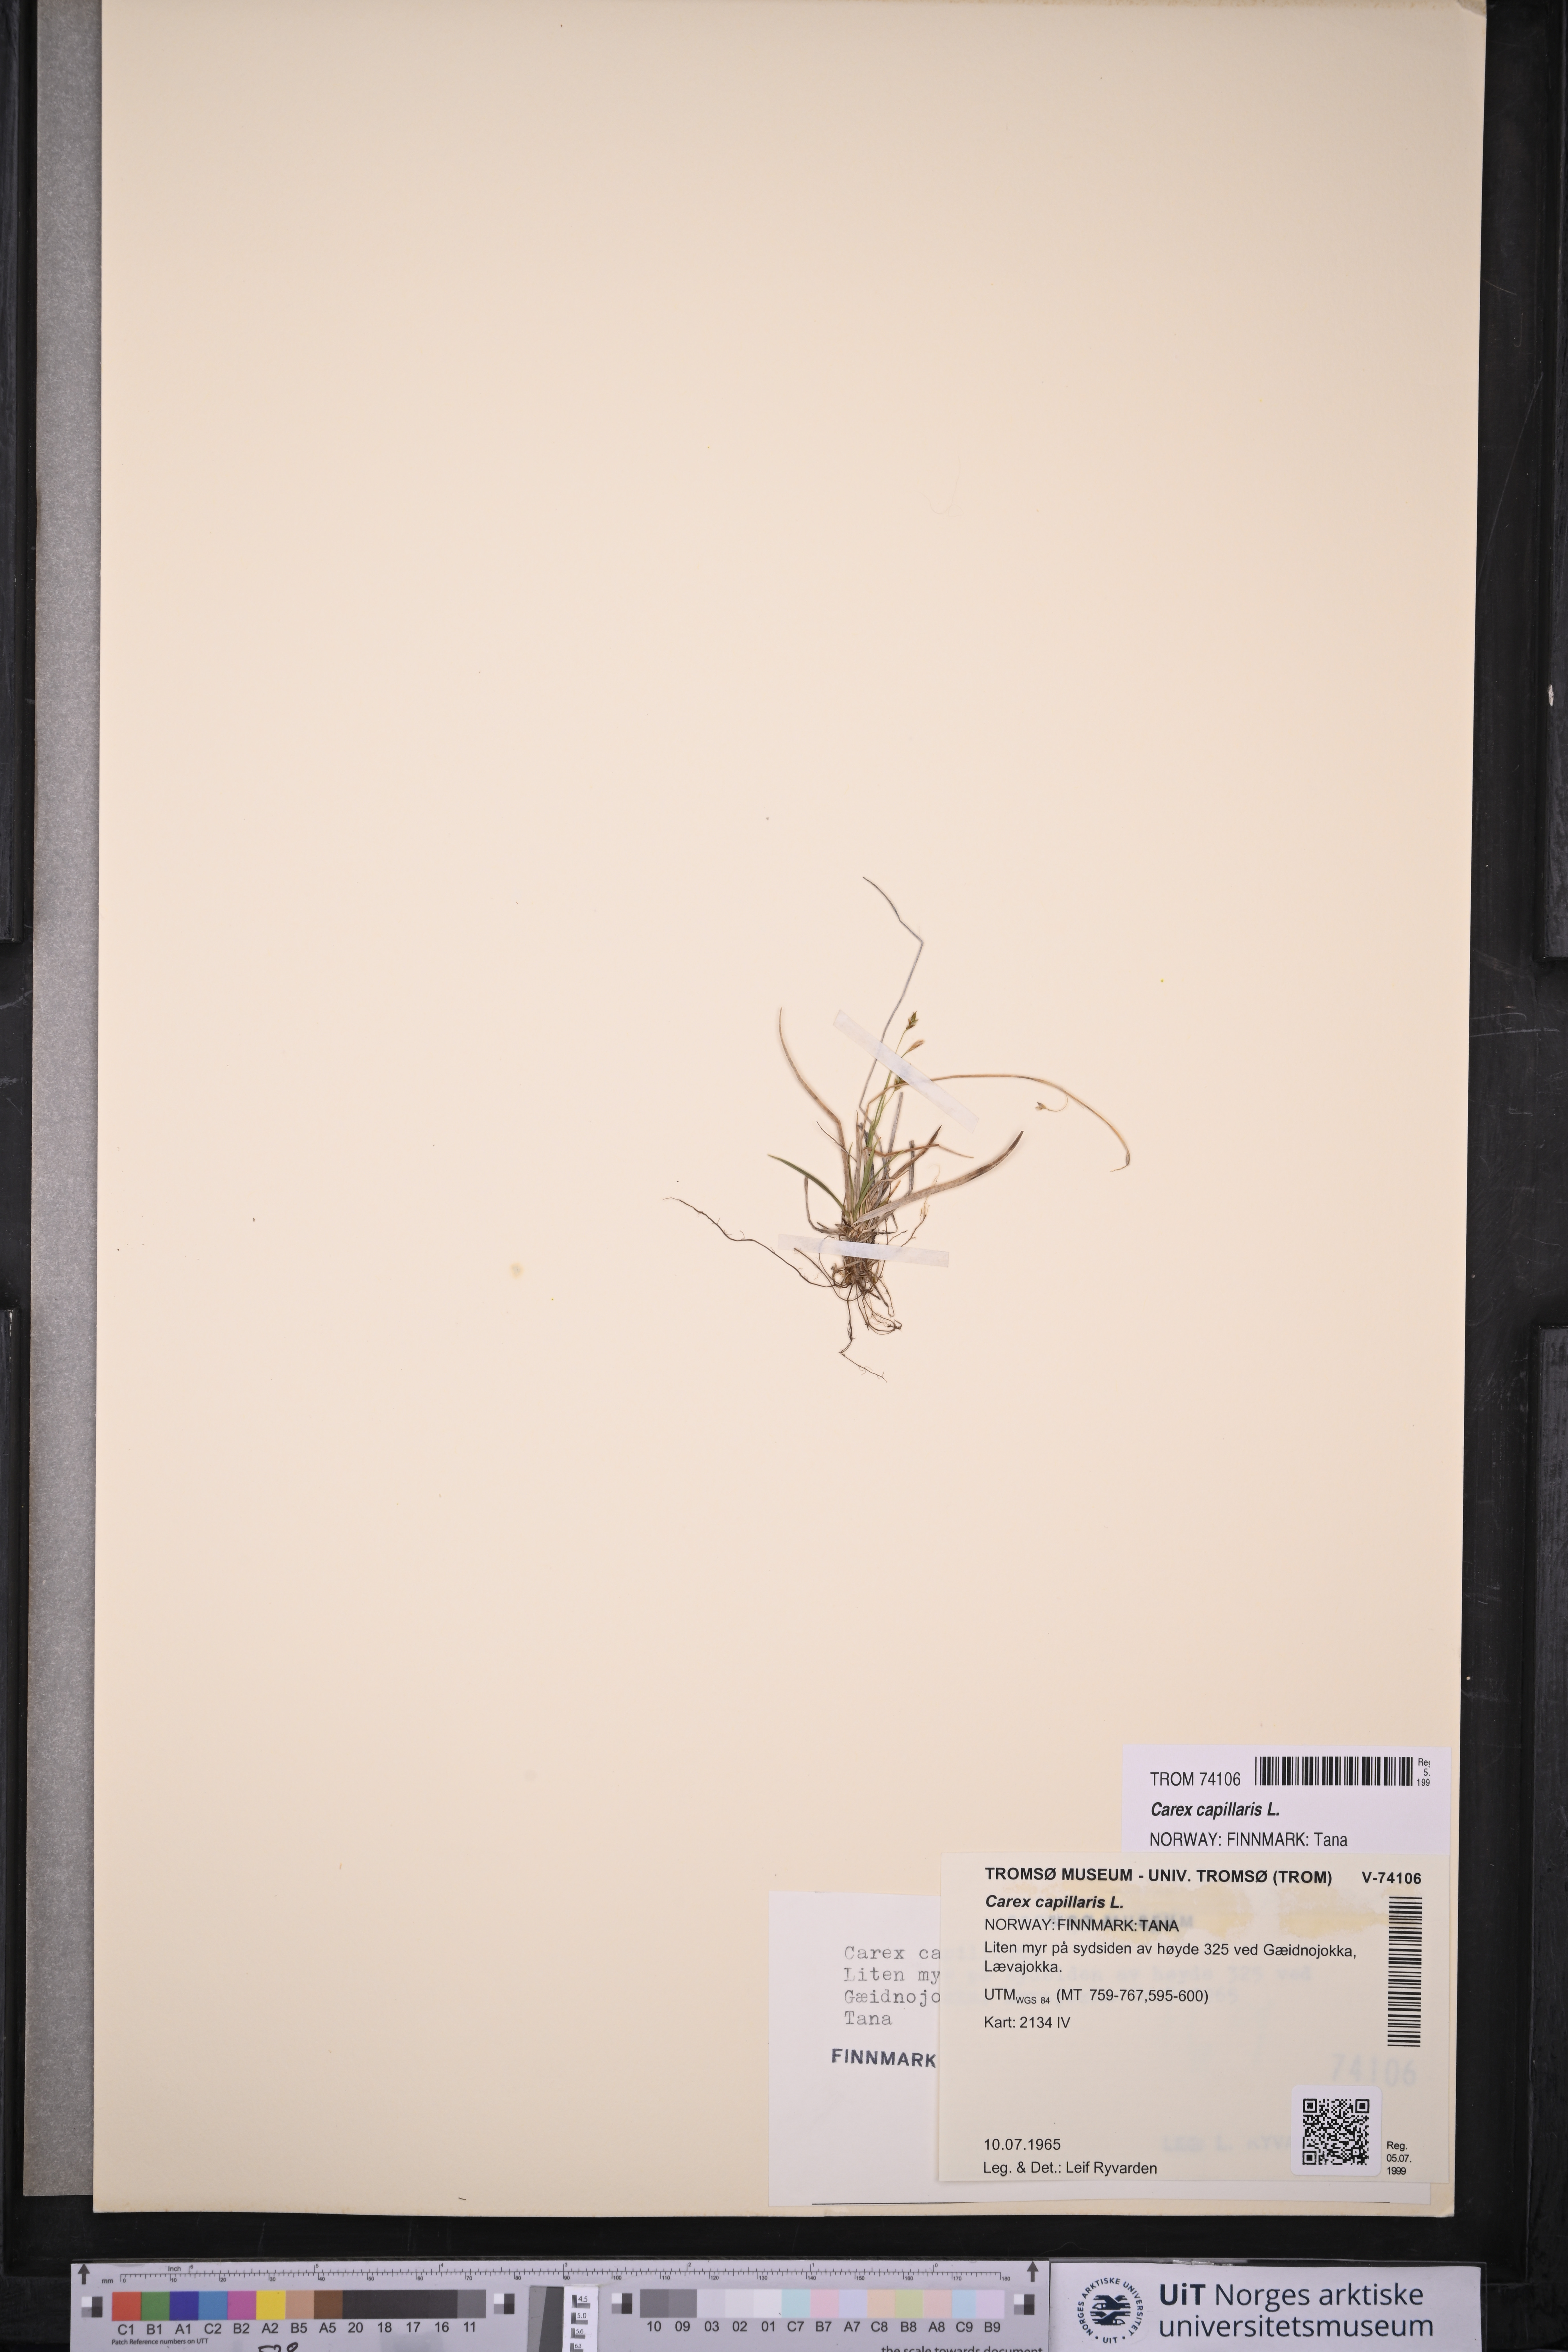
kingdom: Plantae
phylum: Tracheophyta
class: Liliopsida
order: Poales
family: Cyperaceae
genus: Carex
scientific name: Carex capillaris
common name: Hair sedge
